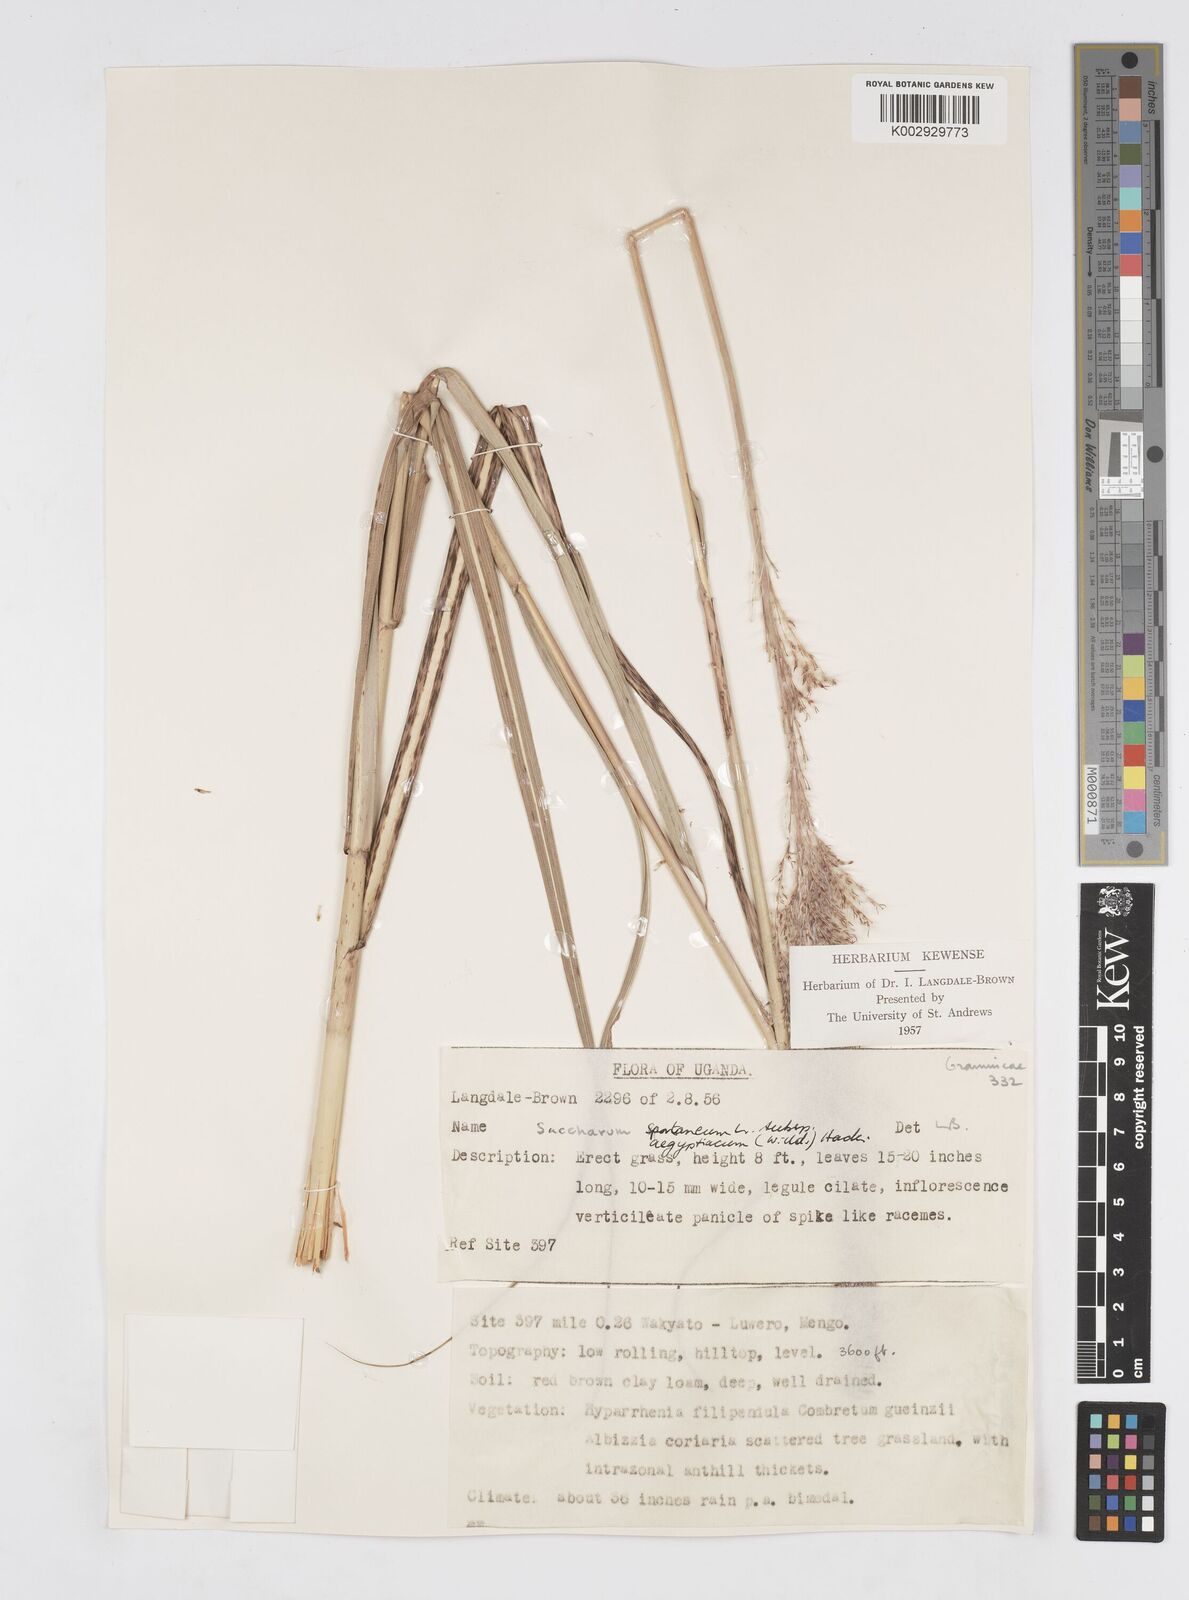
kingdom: Plantae
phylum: Tracheophyta
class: Liliopsida
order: Poales
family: Poaceae
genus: Saccharum
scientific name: Saccharum spontaneum
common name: Wild sugarcane
